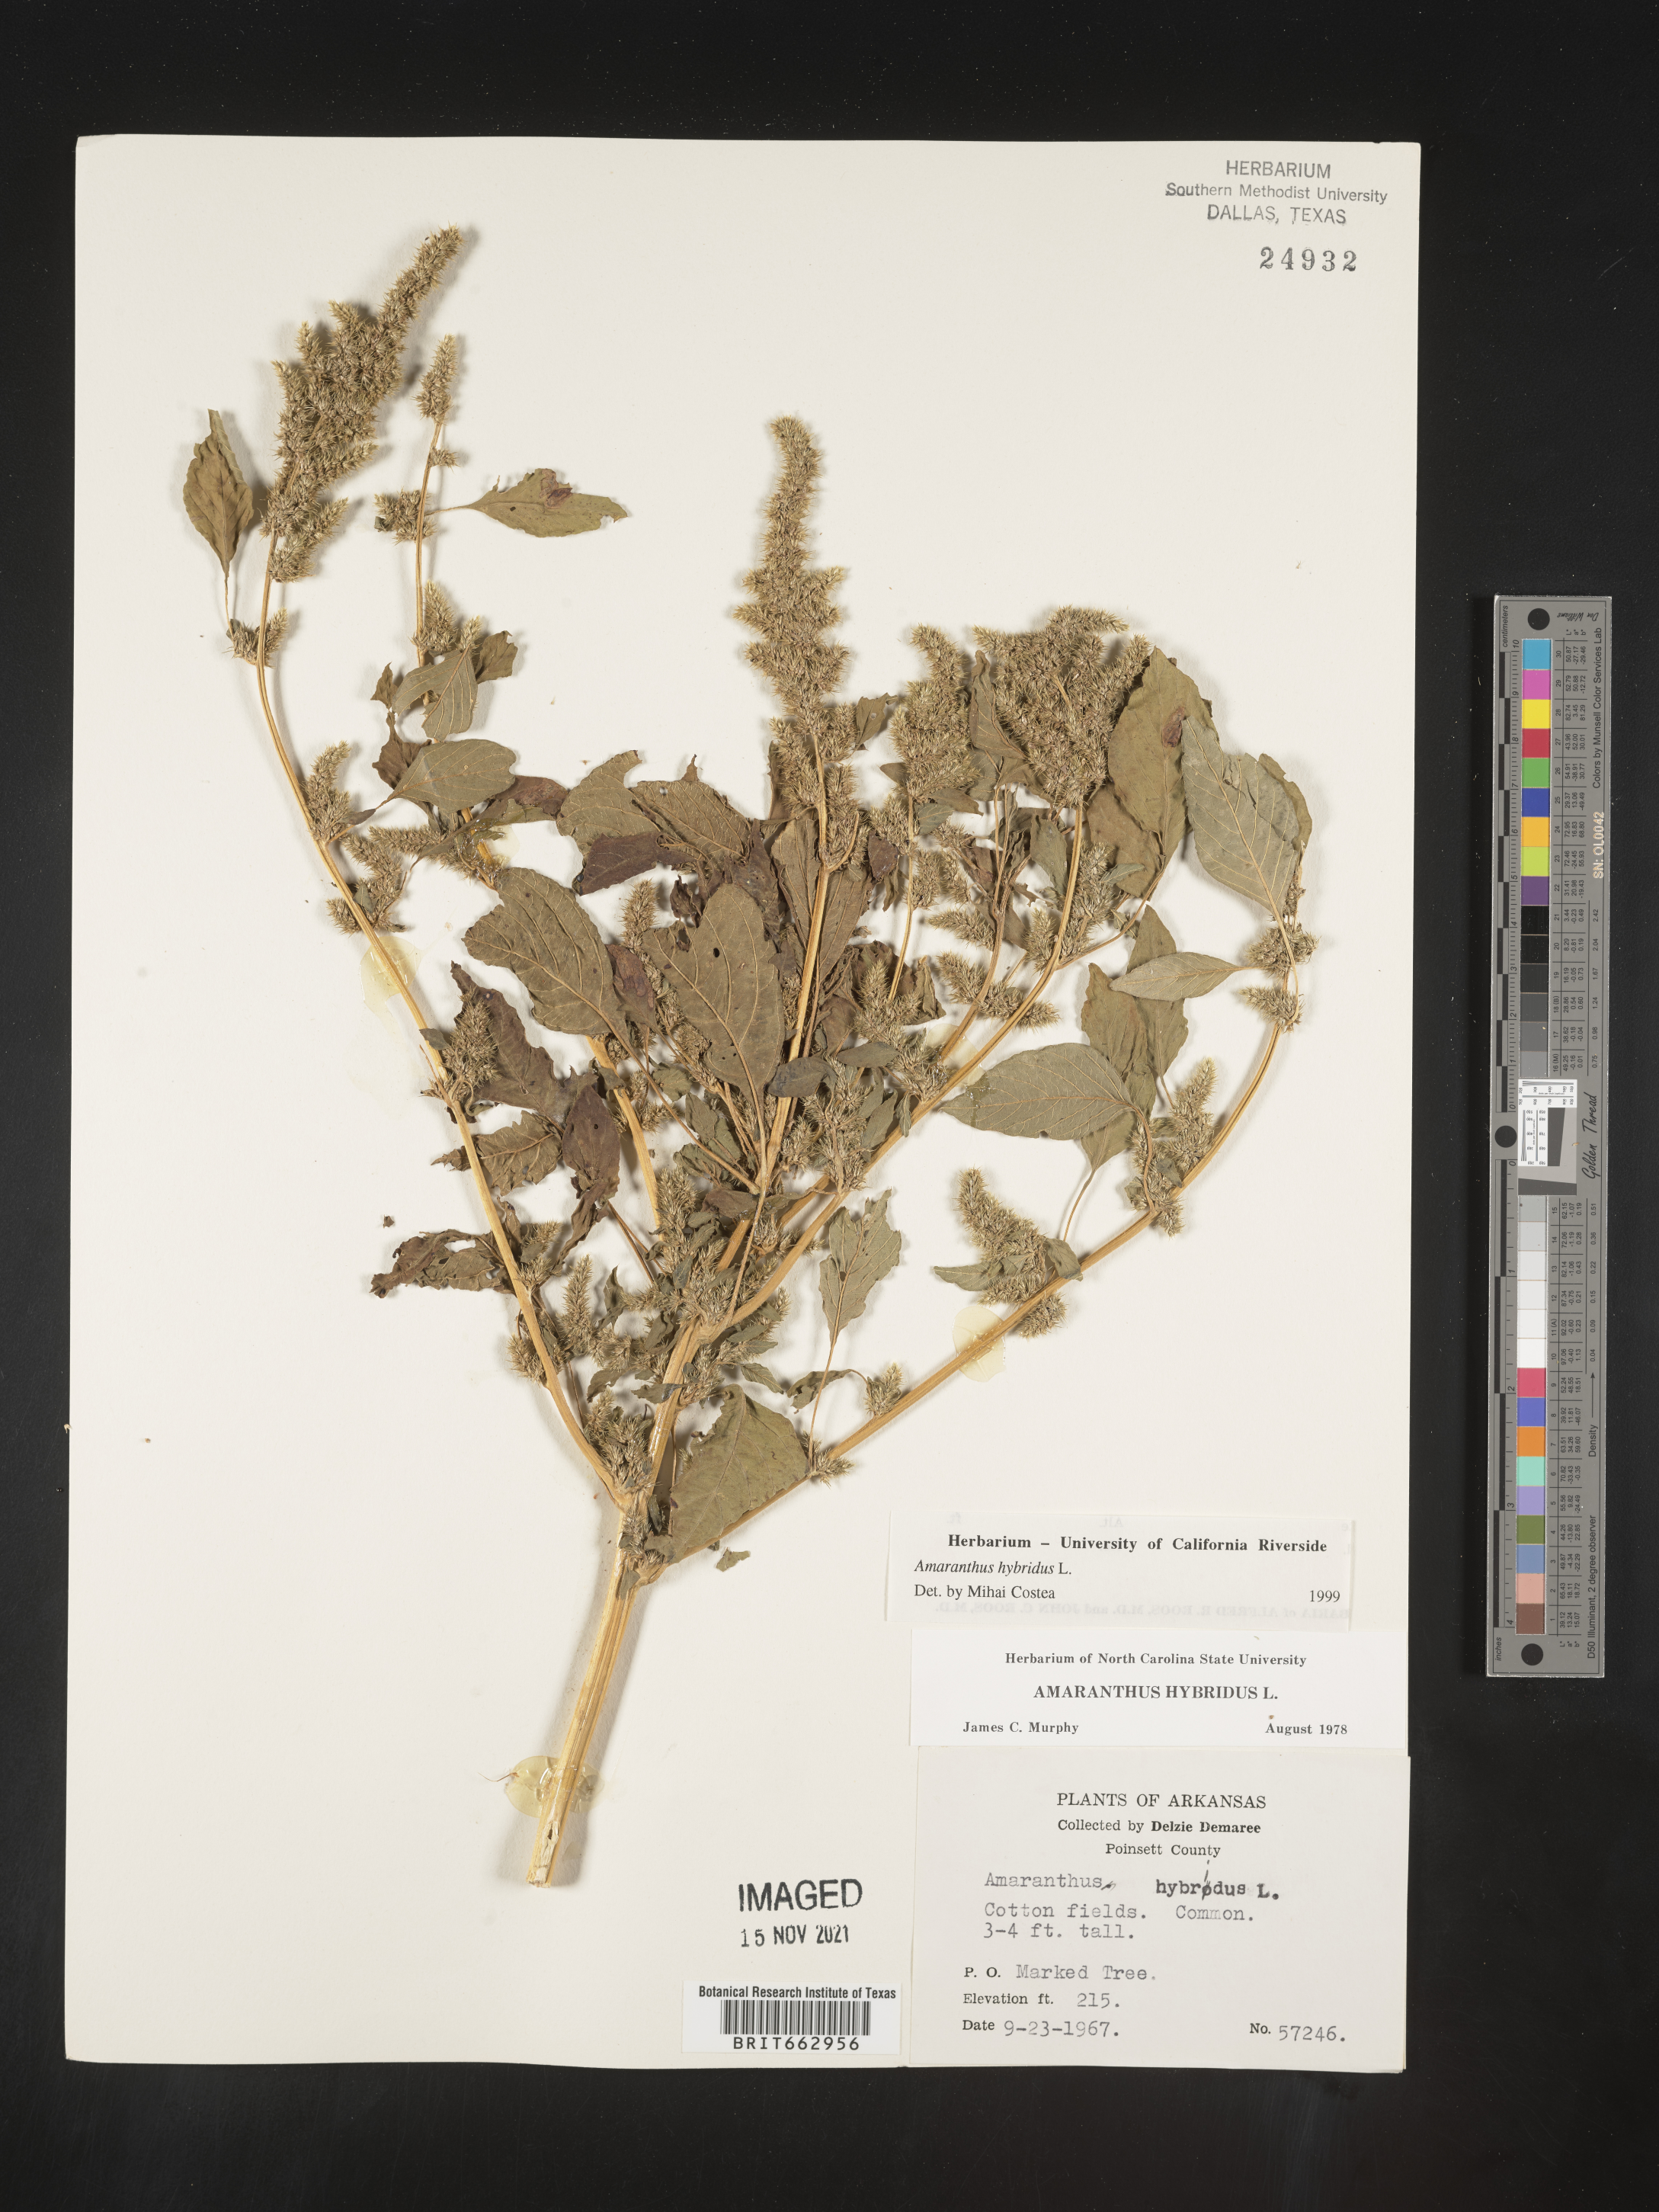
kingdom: Plantae
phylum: Tracheophyta
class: Magnoliopsida
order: Caryophyllales
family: Amaranthaceae
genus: Amaranthus
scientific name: Amaranthus hybridus
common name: Green amaranth
